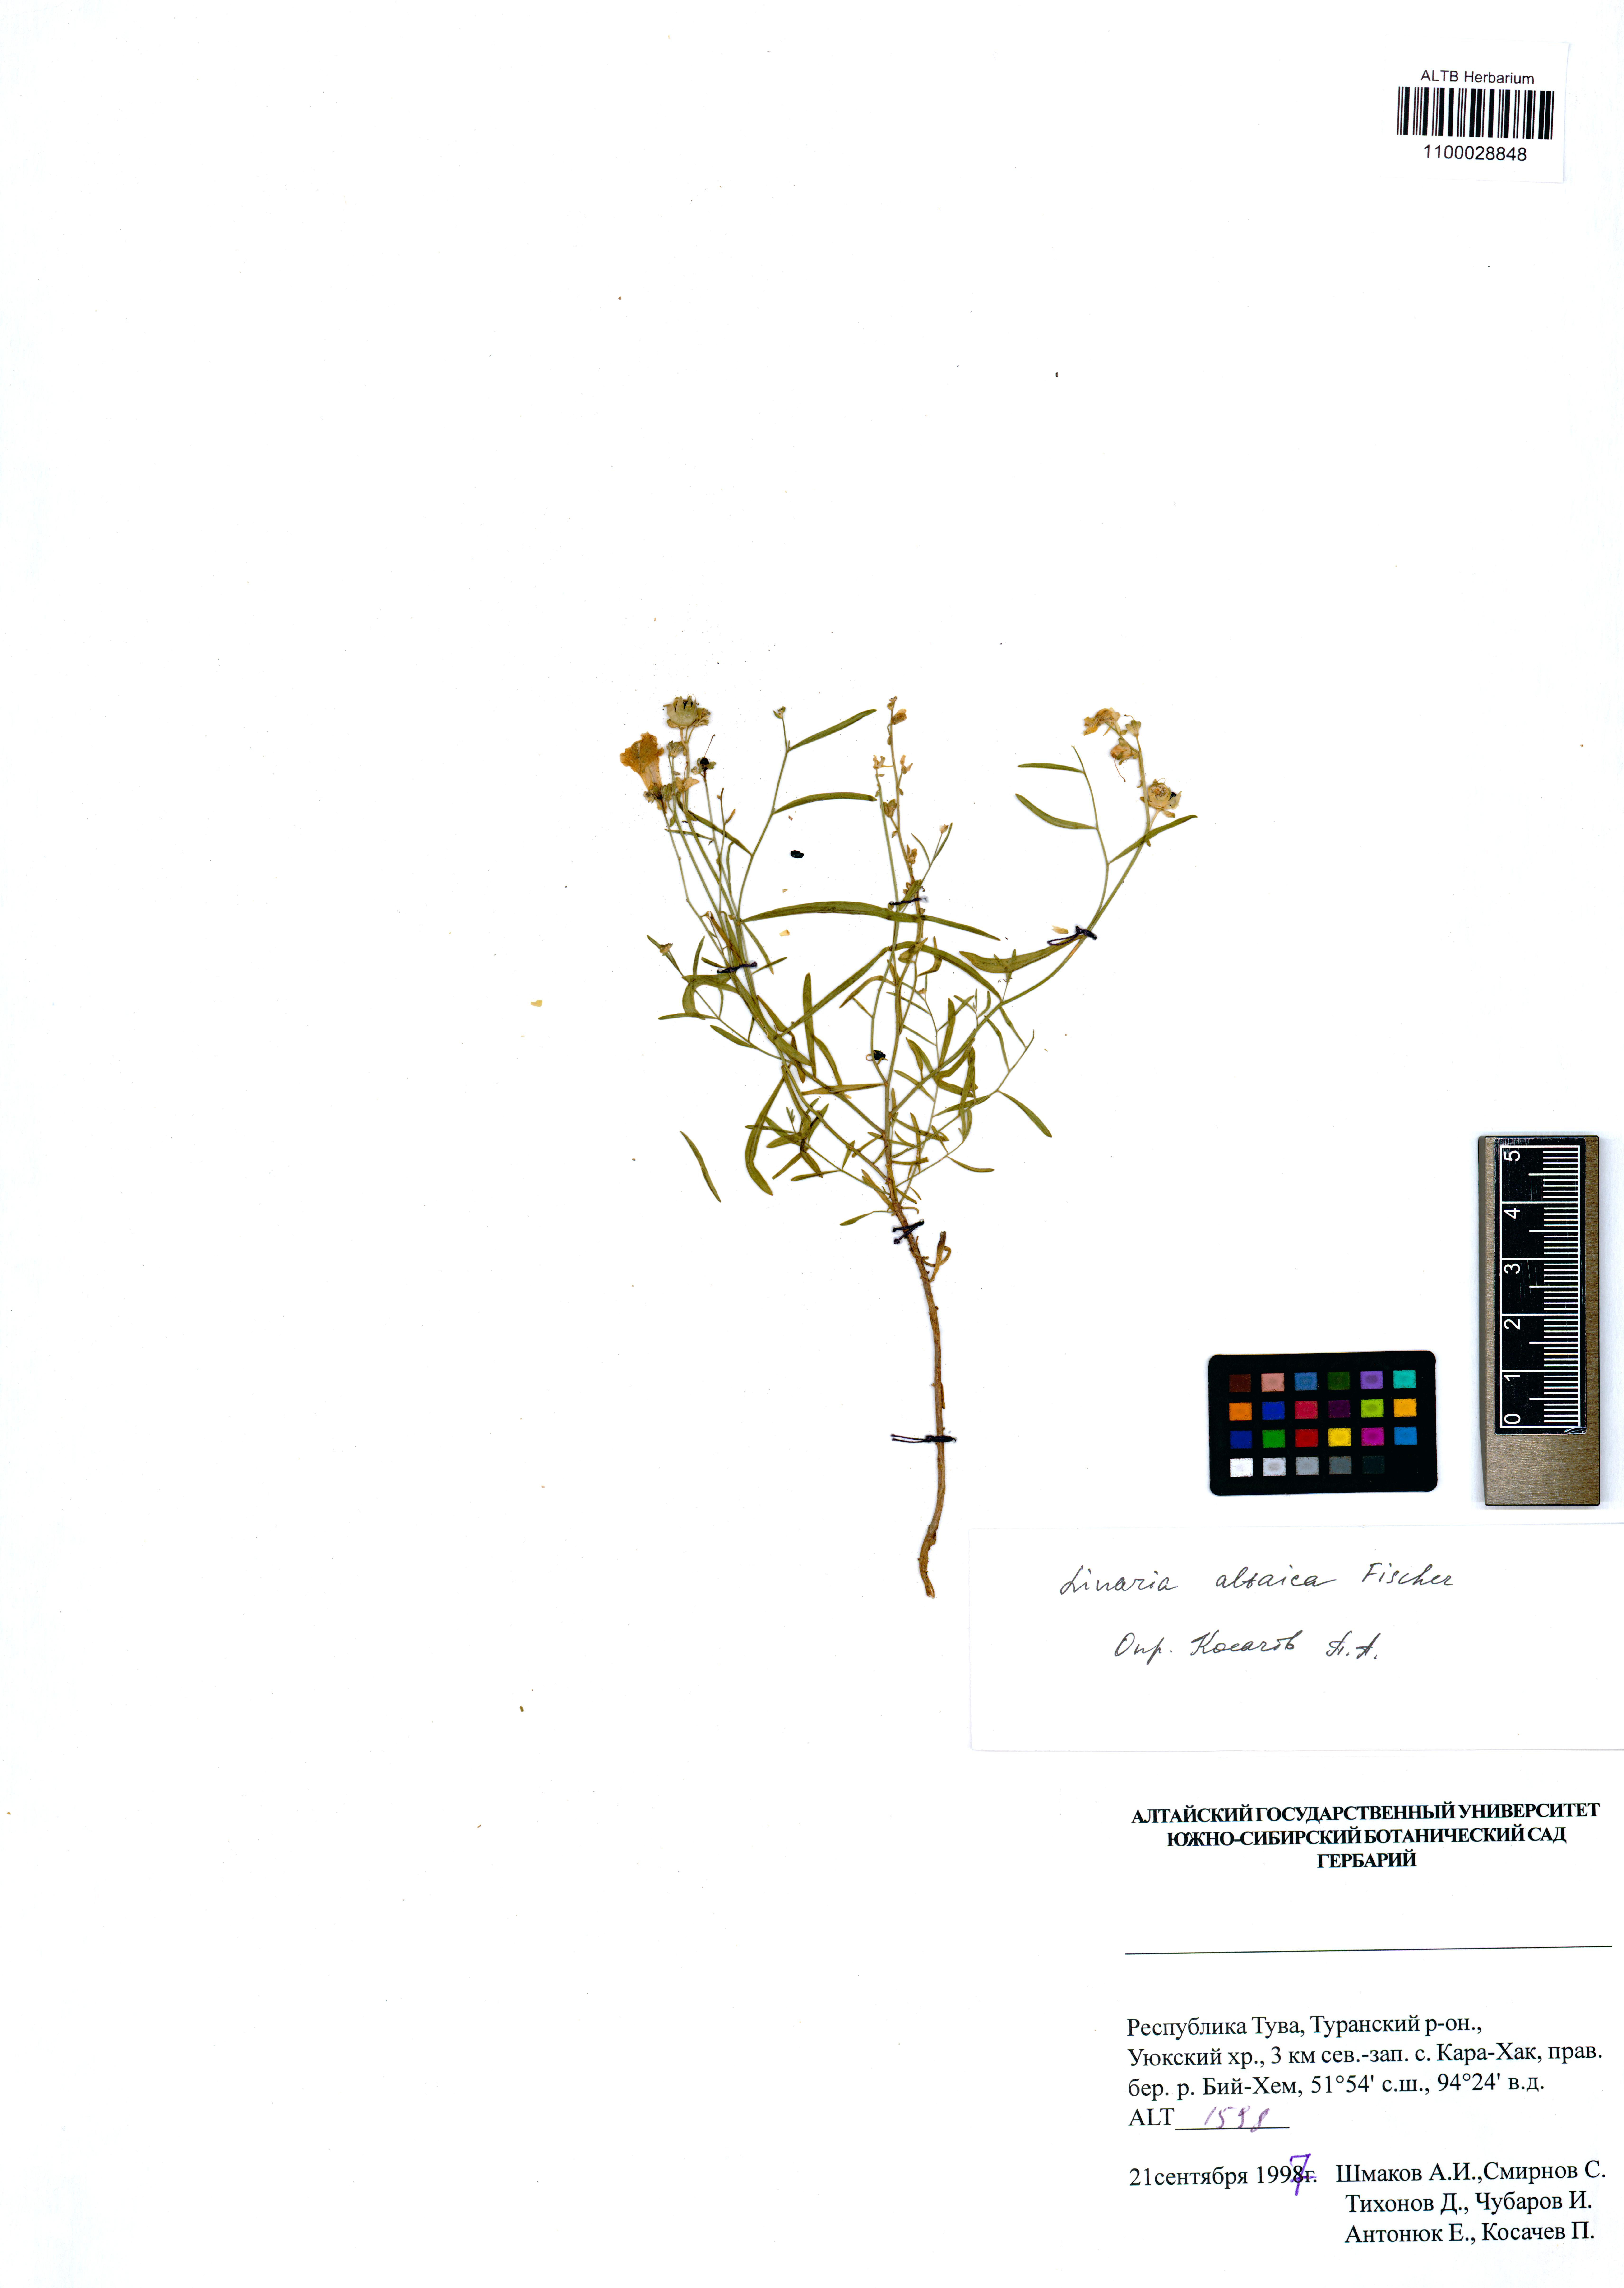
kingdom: Plantae
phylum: Tracheophyta
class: Magnoliopsida
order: Lamiales
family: Plantaginaceae
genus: Linaria
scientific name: Linaria altaica
